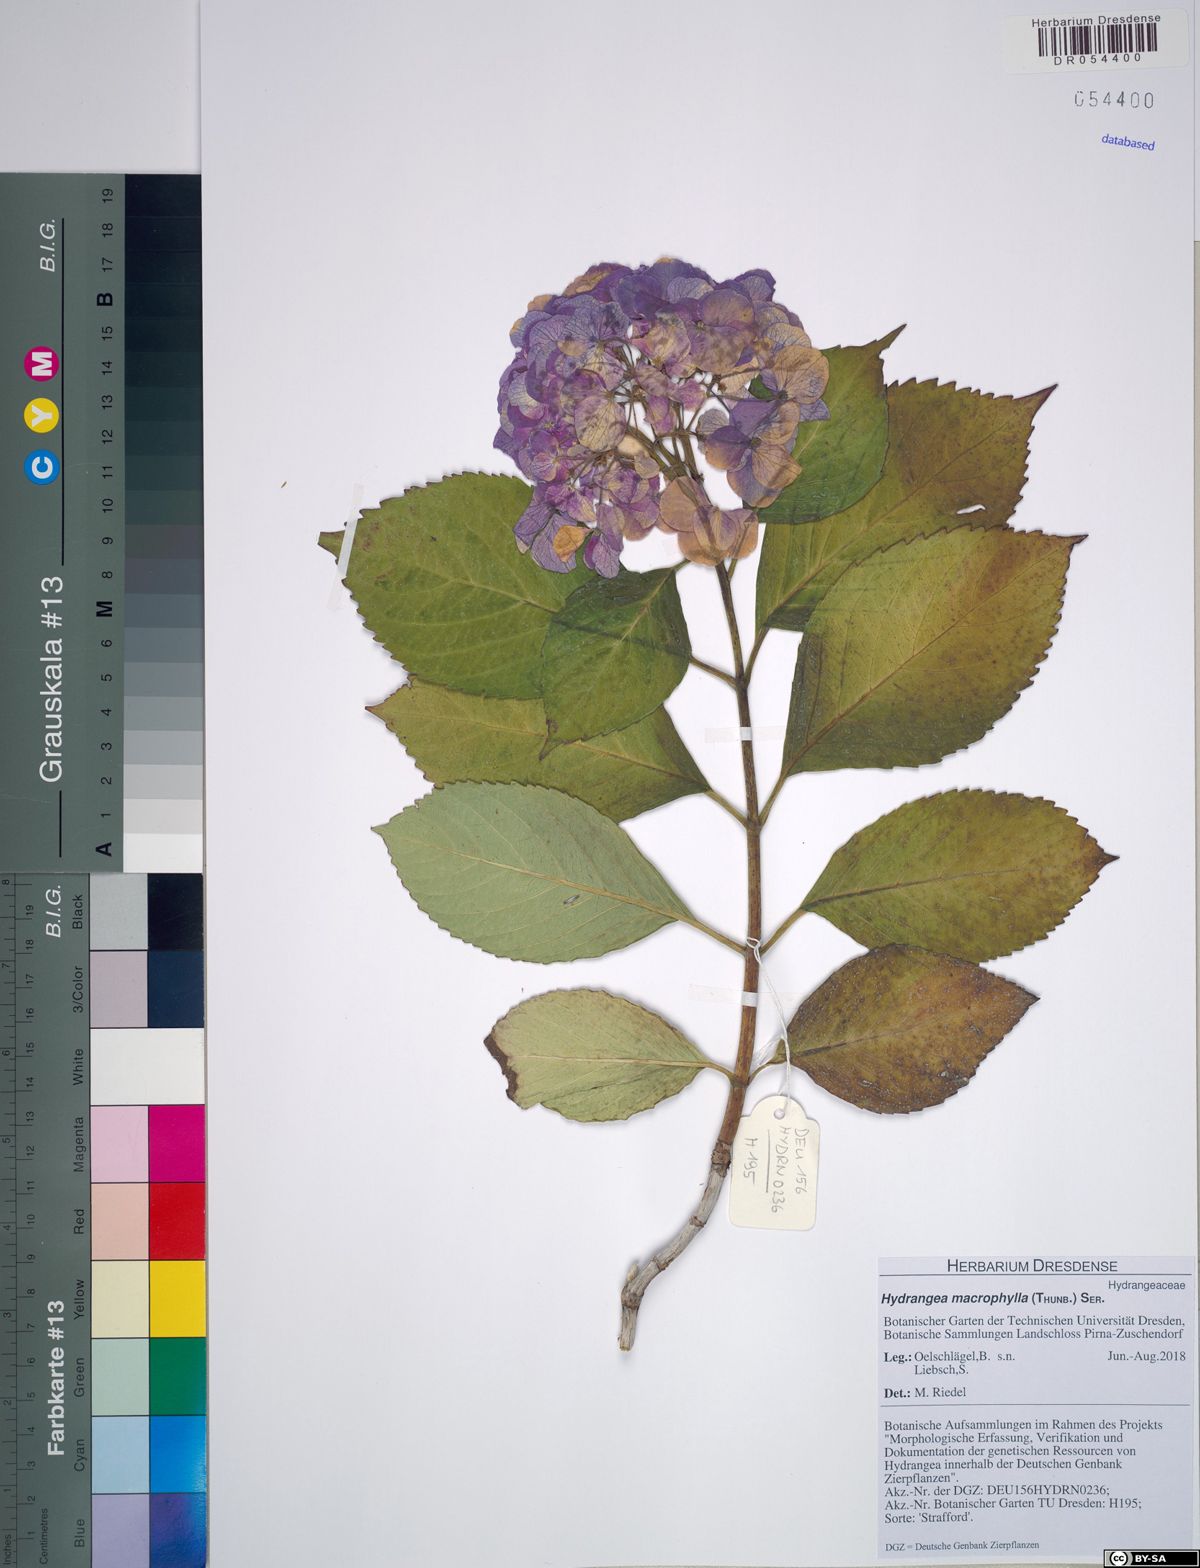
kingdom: Plantae
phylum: Tracheophyta
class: Magnoliopsida
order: Cornales
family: Hydrangeaceae
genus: Hydrangea
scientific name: Hydrangea macrophylla
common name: Hydrangea
